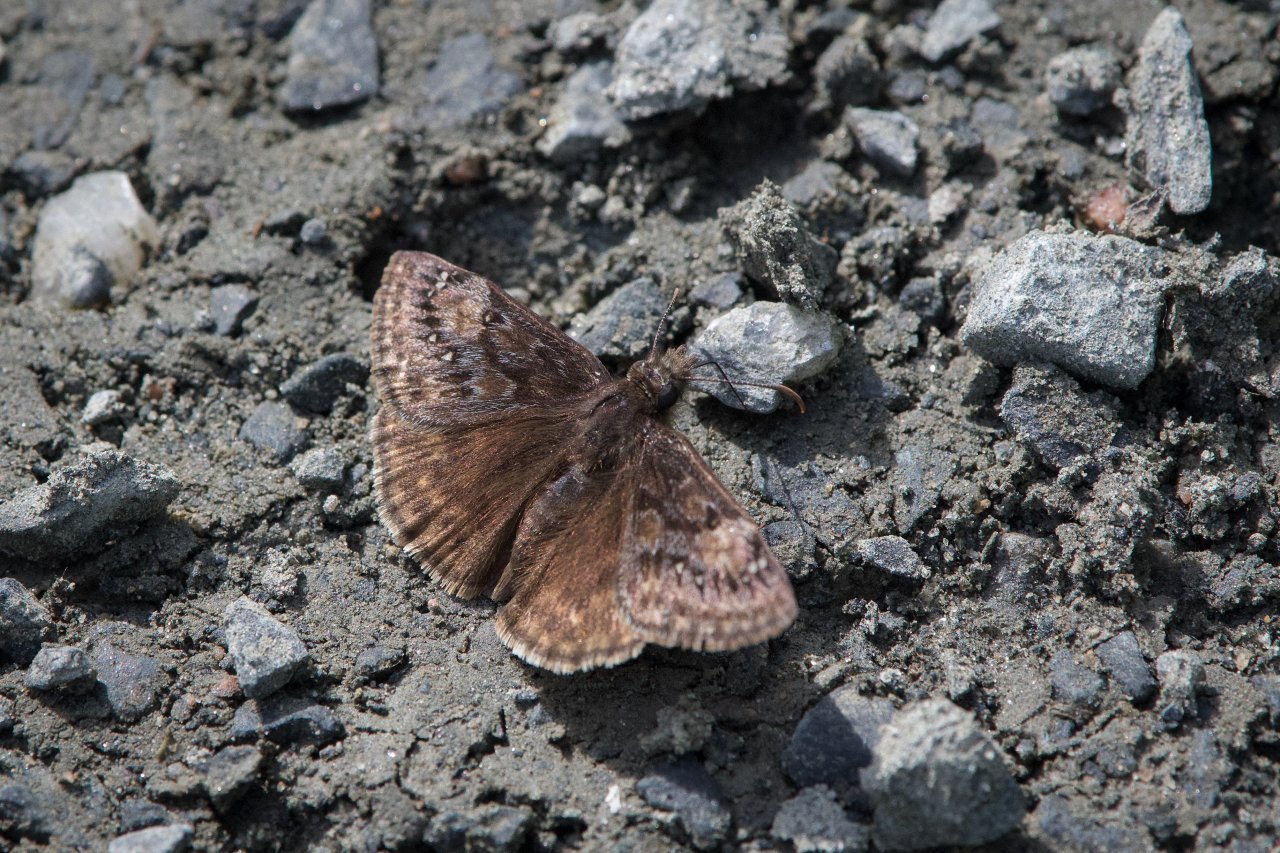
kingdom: Animalia
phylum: Arthropoda
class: Insecta
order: Lepidoptera
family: Hesperiidae
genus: Erynnis
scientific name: Erynnis
